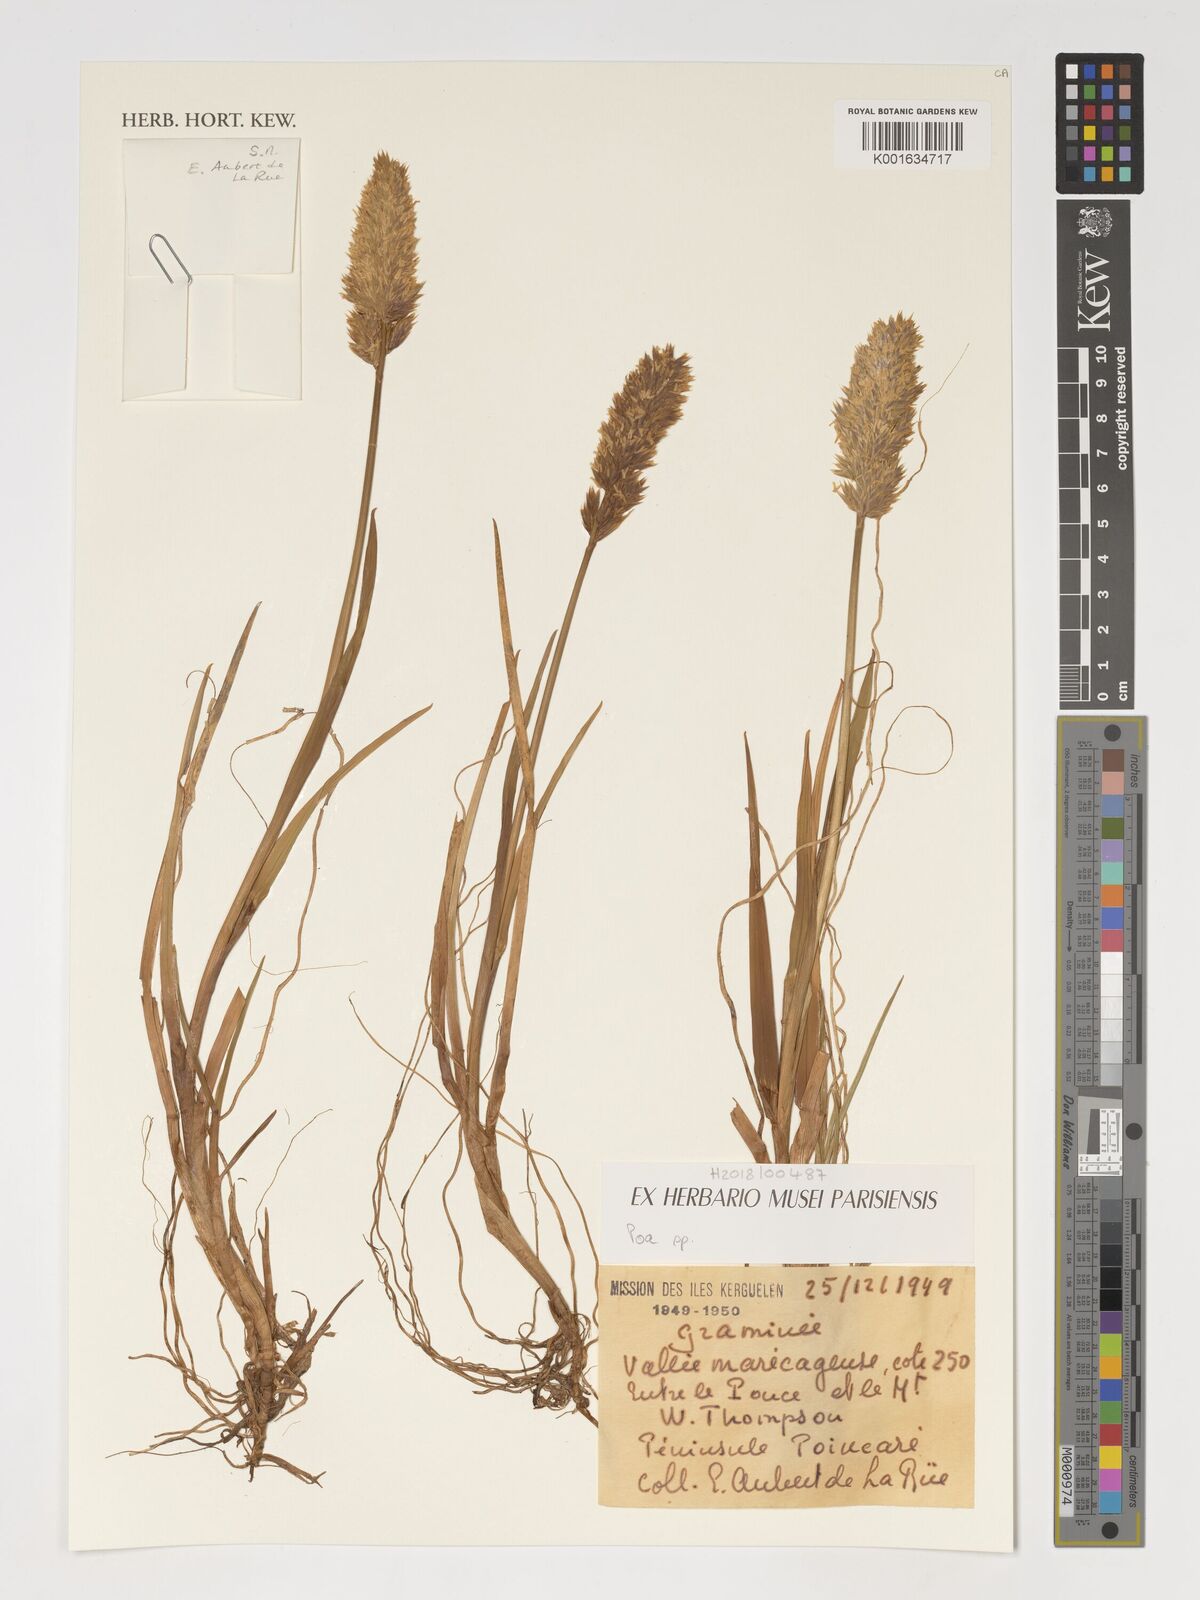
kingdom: Plantae
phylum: Tracheophyta
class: Liliopsida
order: Poales
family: Poaceae
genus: Poa
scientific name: Poa
